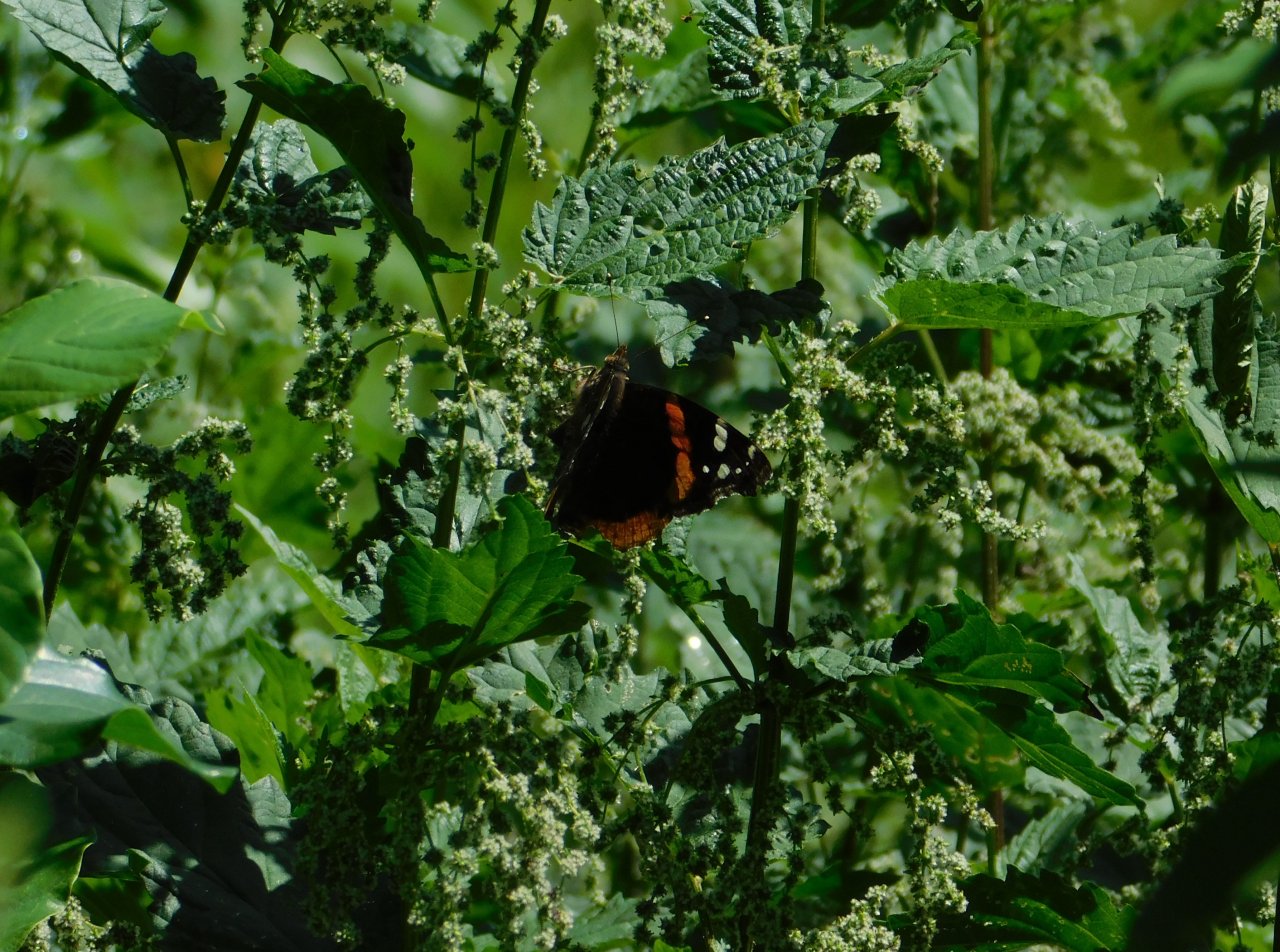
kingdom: Animalia
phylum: Arthropoda
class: Insecta
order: Lepidoptera
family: Nymphalidae
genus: Vanessa
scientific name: Vanessa atalanta
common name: Red Admiral
